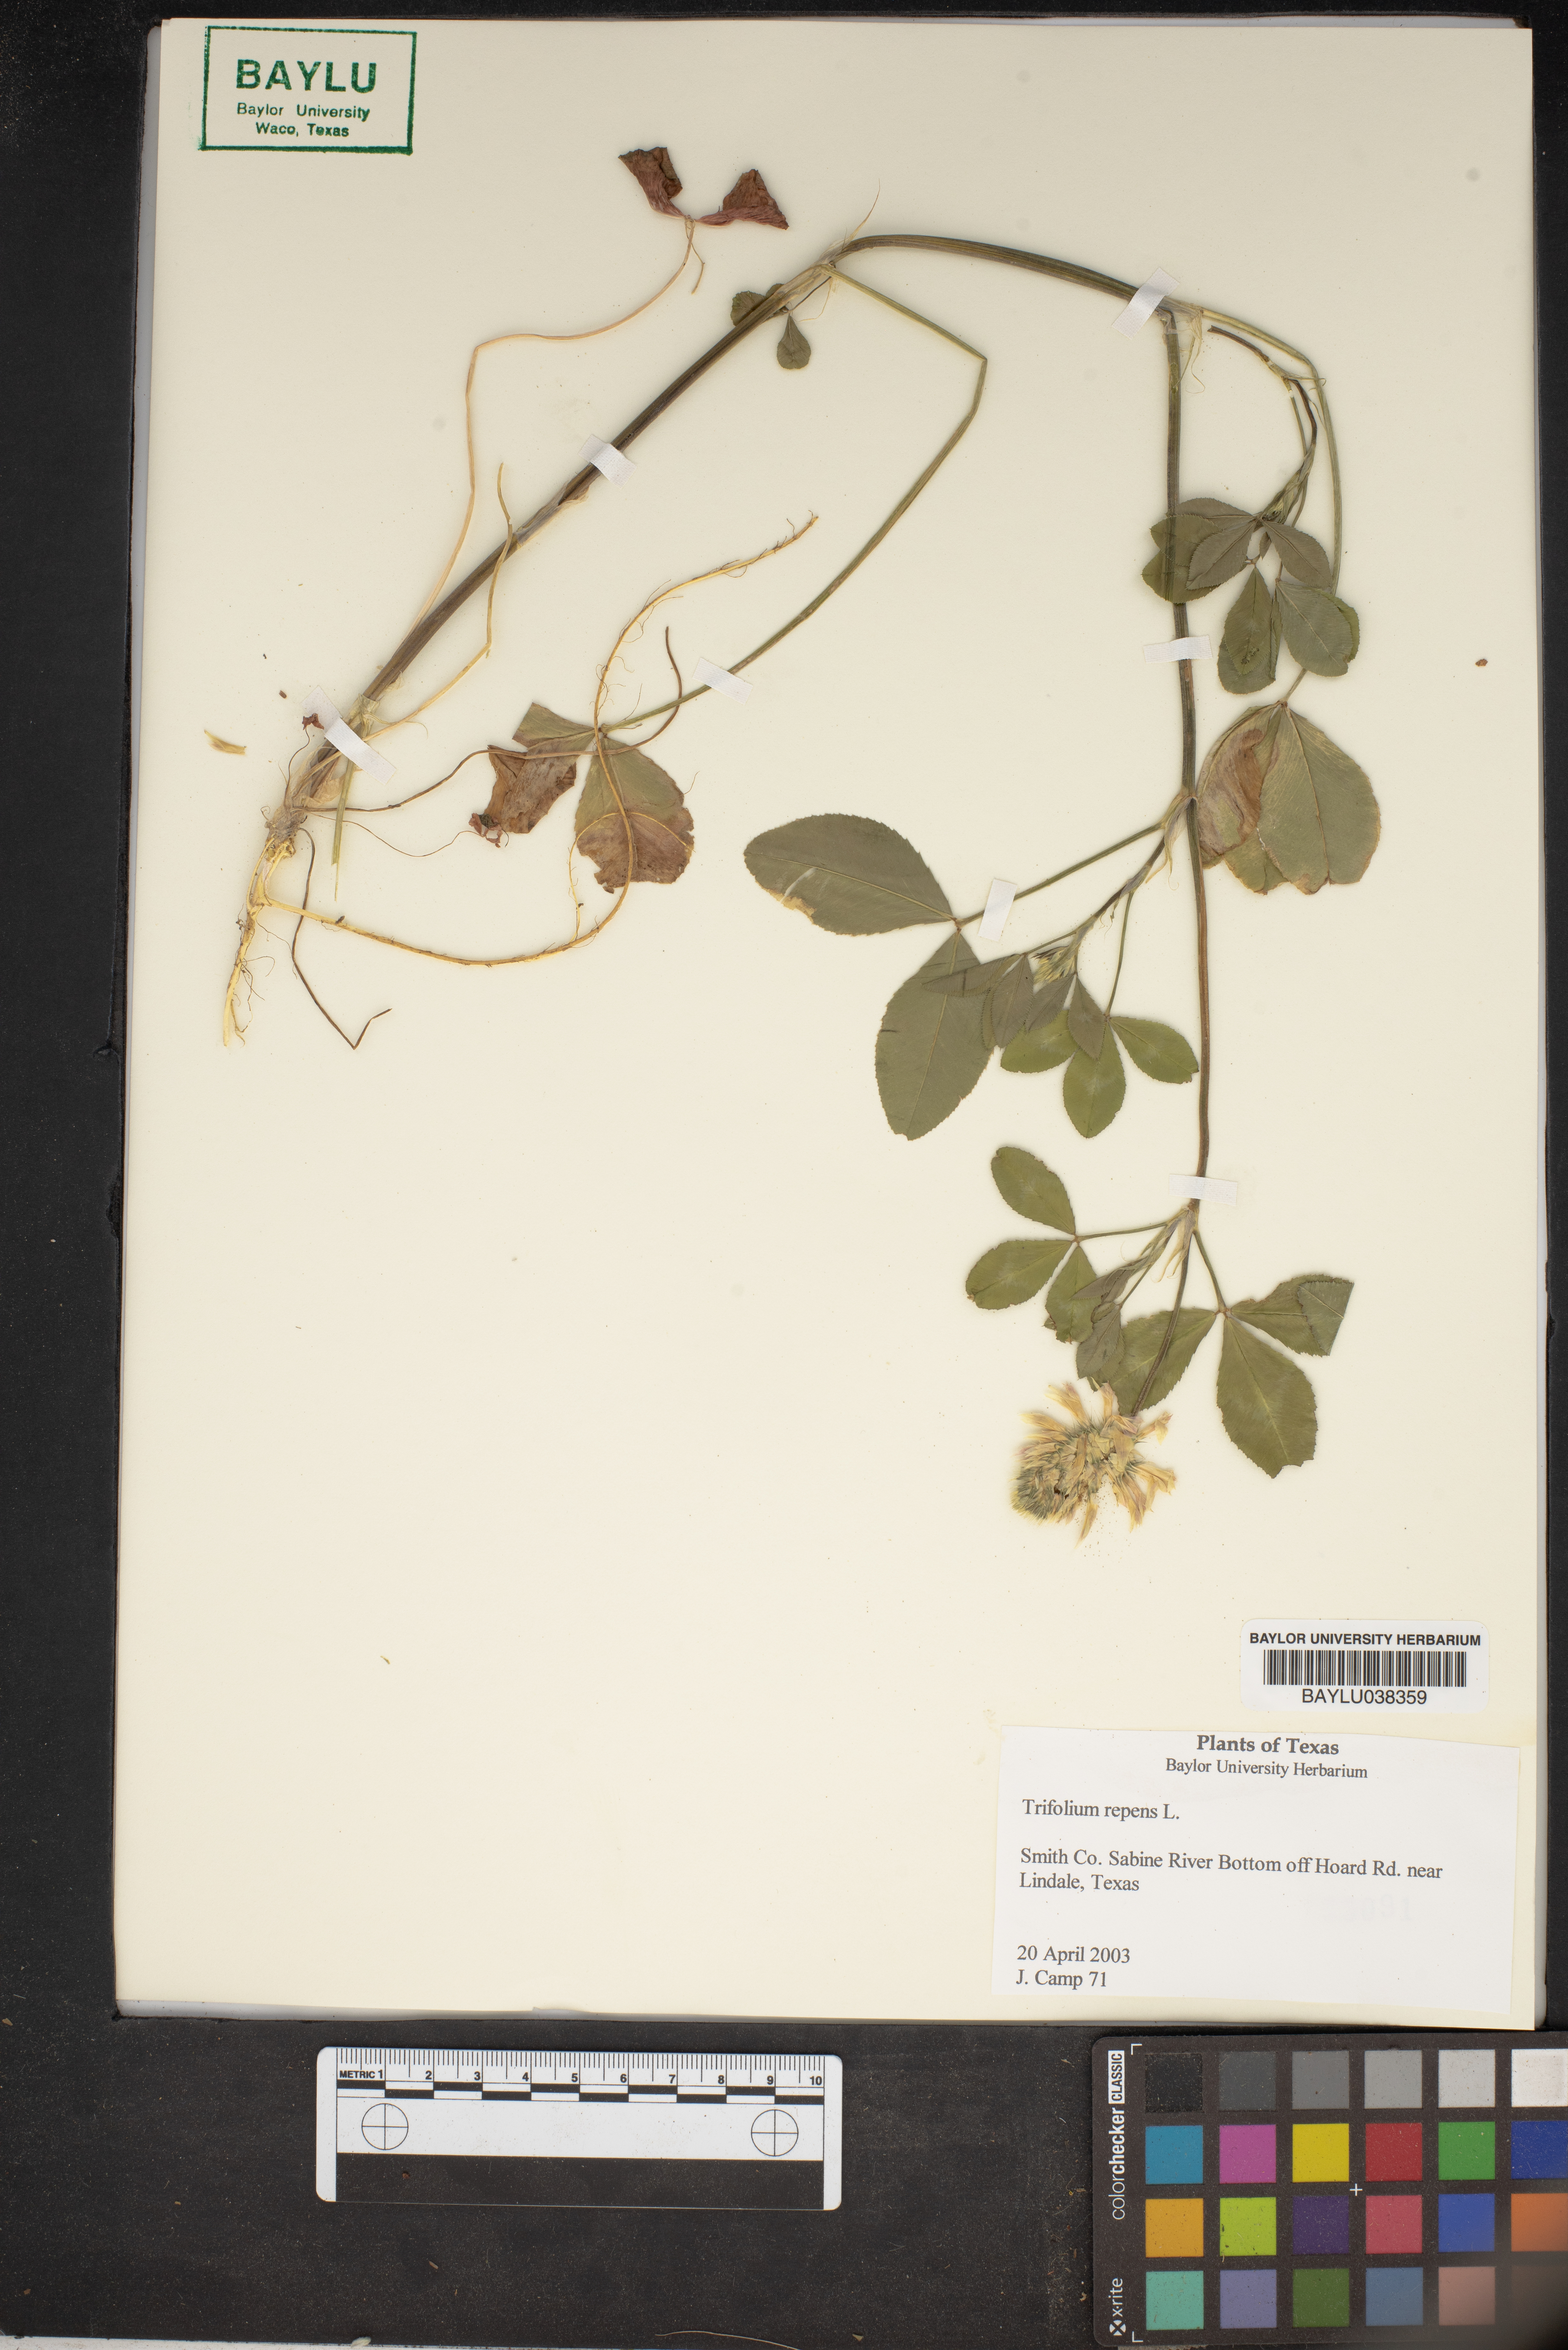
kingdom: Plantae
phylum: Tracheophyta
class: Magnoliopsida
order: Fabales
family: Fabaceae
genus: Trifolium
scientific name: Trifolium repens
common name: White clover
